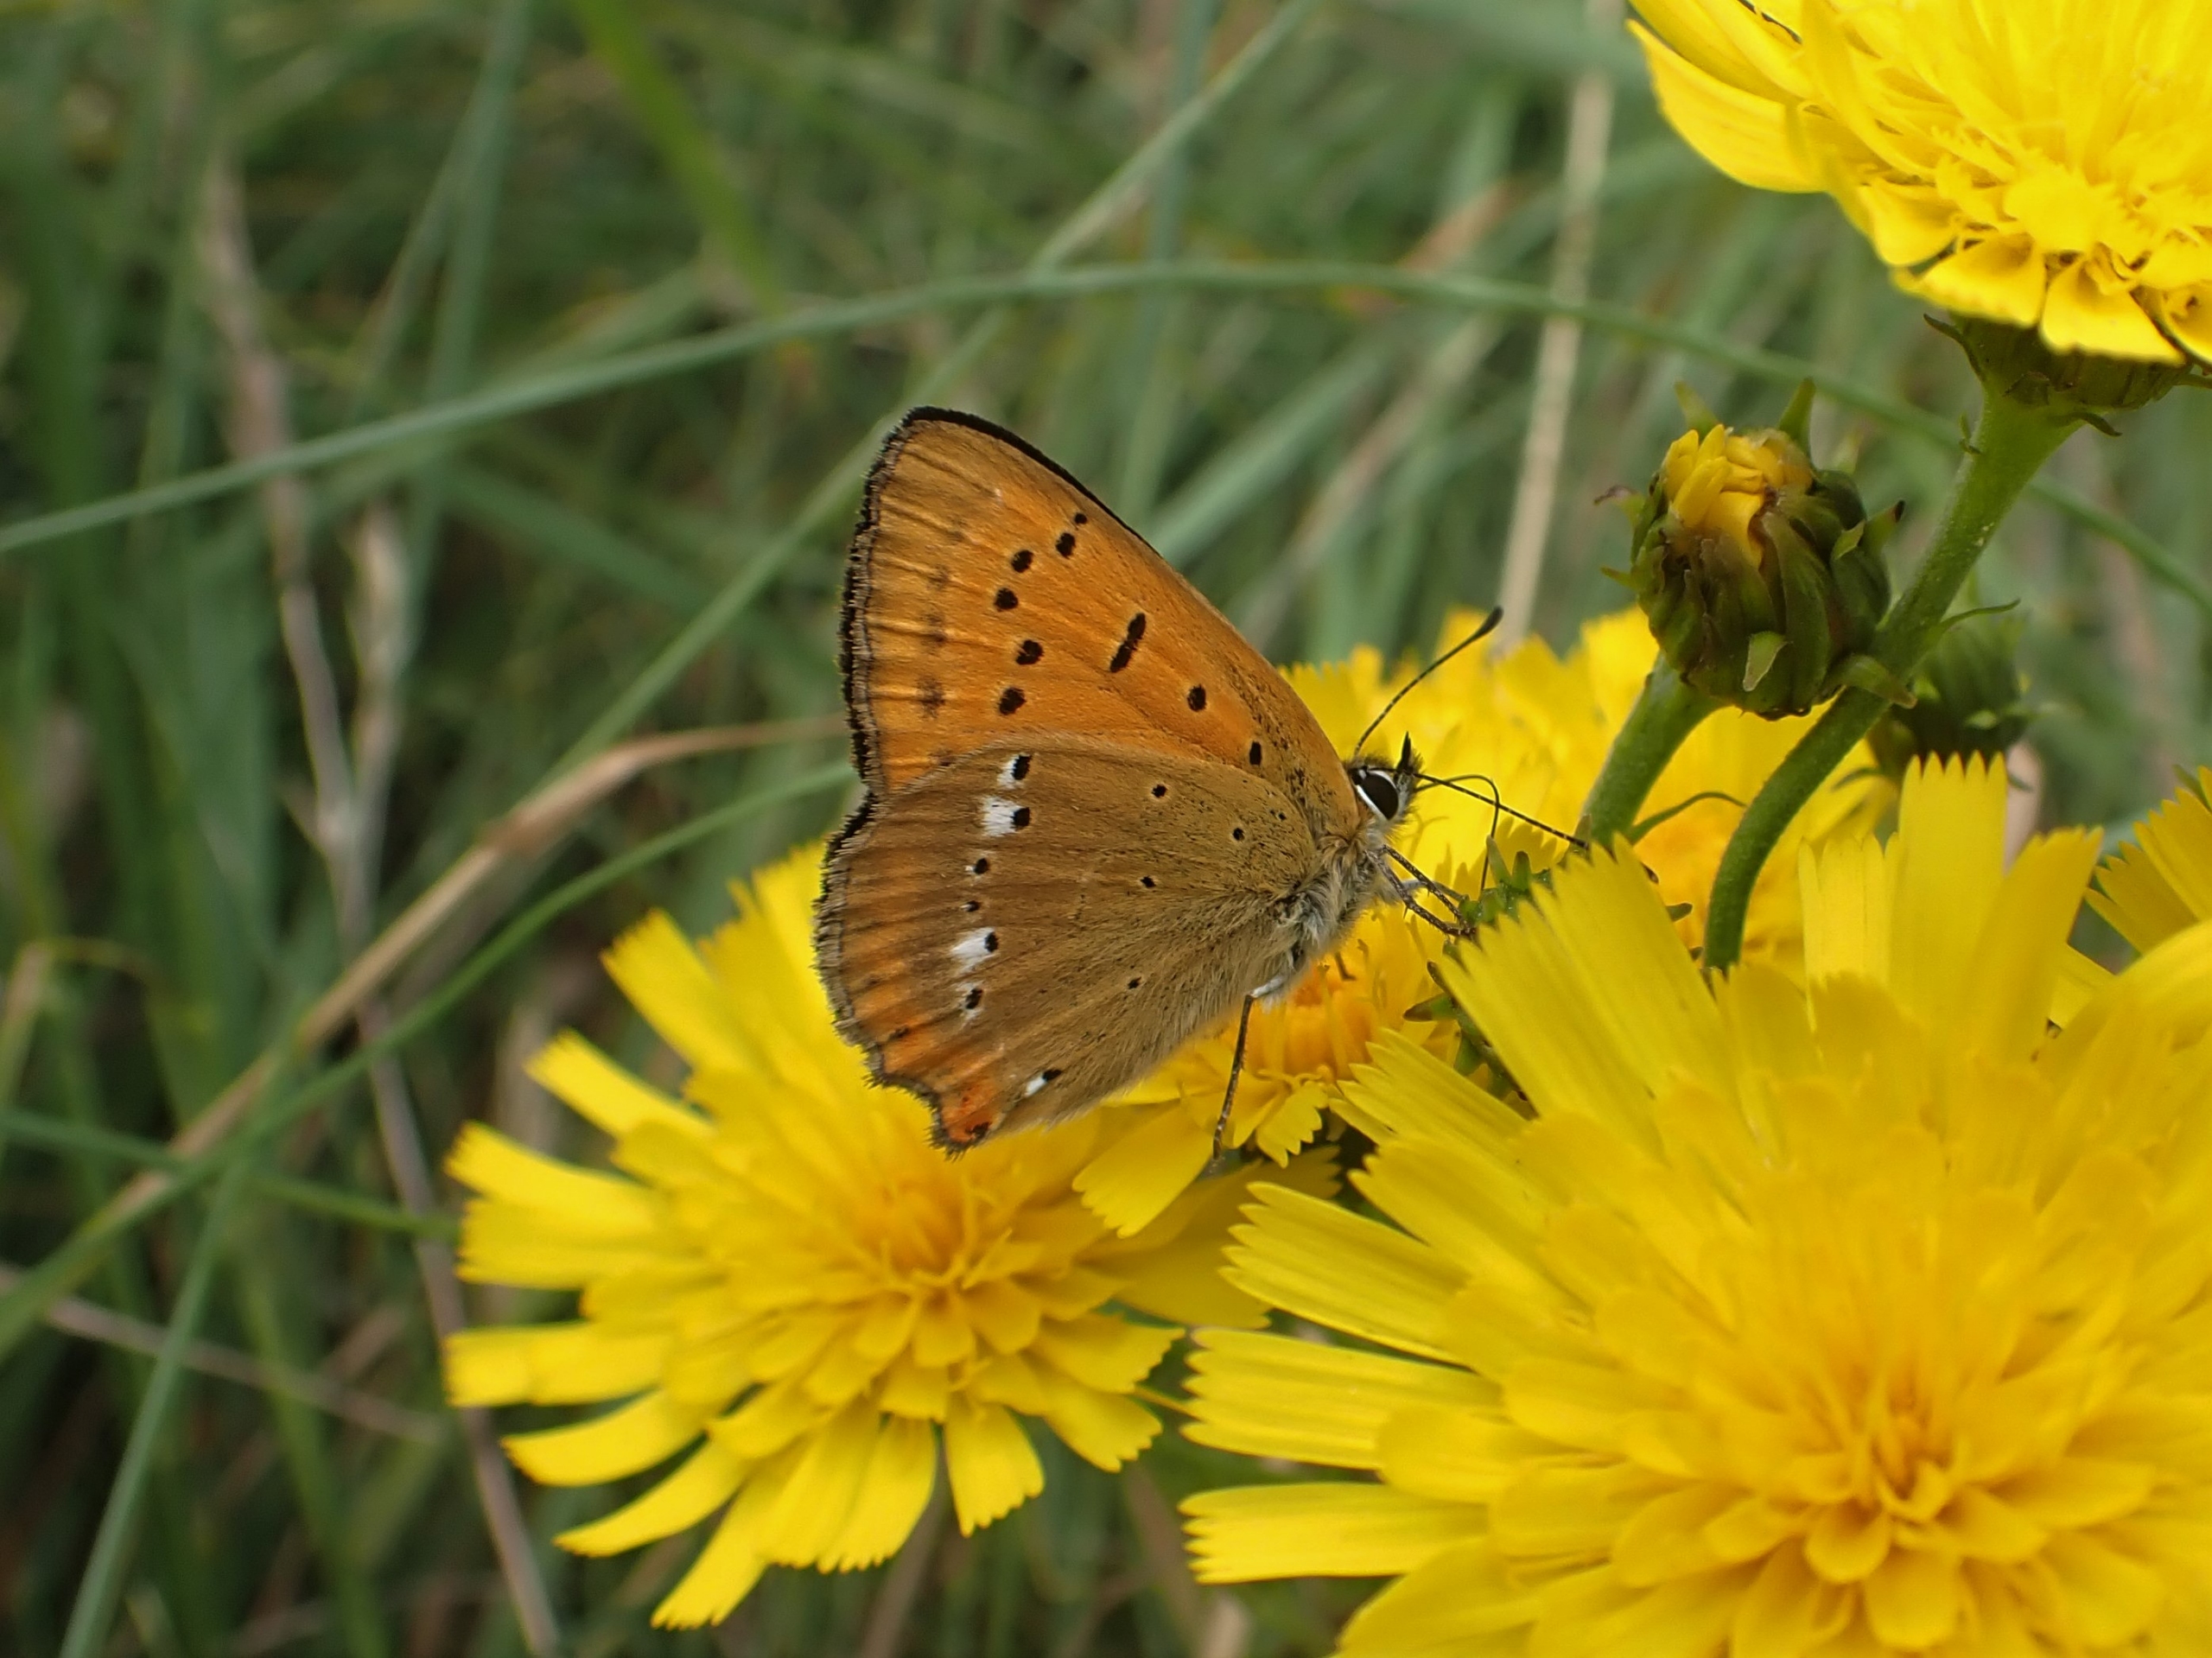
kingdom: Animalia
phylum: Arthropoda
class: Insecta
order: Lepidoptera
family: Lycaenidae
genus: Lycaena
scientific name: Lycaena virgaureae
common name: Dukatsommerfugl
